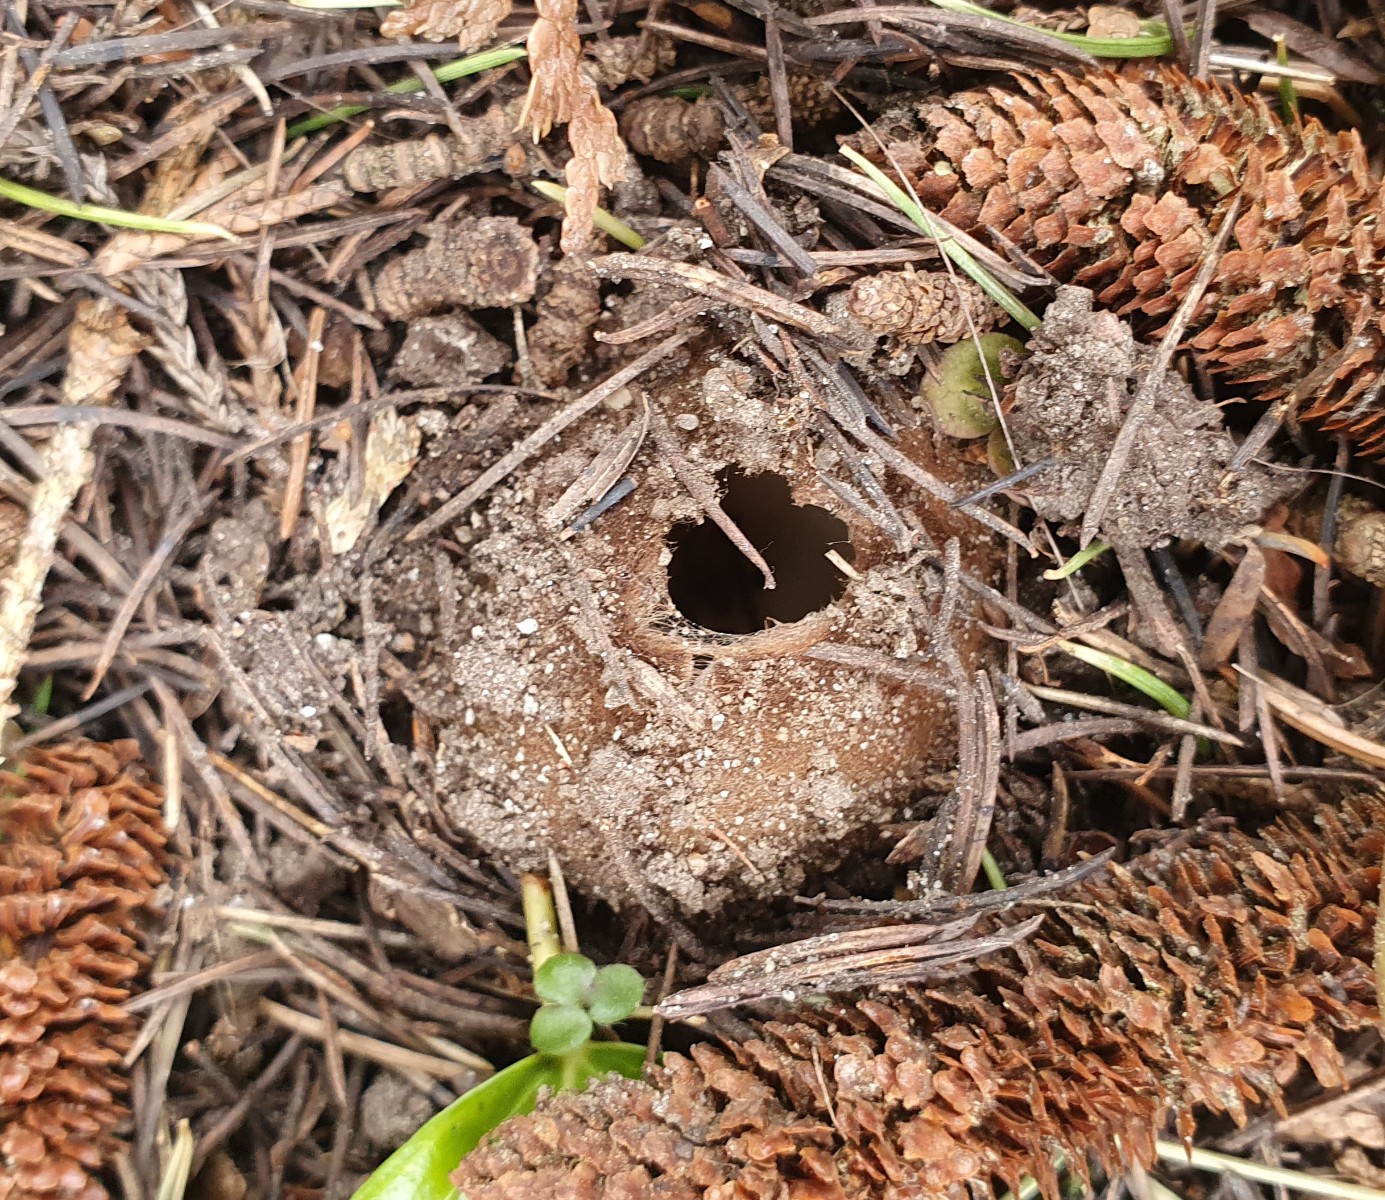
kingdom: Fungi
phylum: Ascomycota
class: Pezizomycetes
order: Pezizales
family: Pyronemataceae
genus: Geopora
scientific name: Geopora sumneriana
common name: vår-jordbæger
